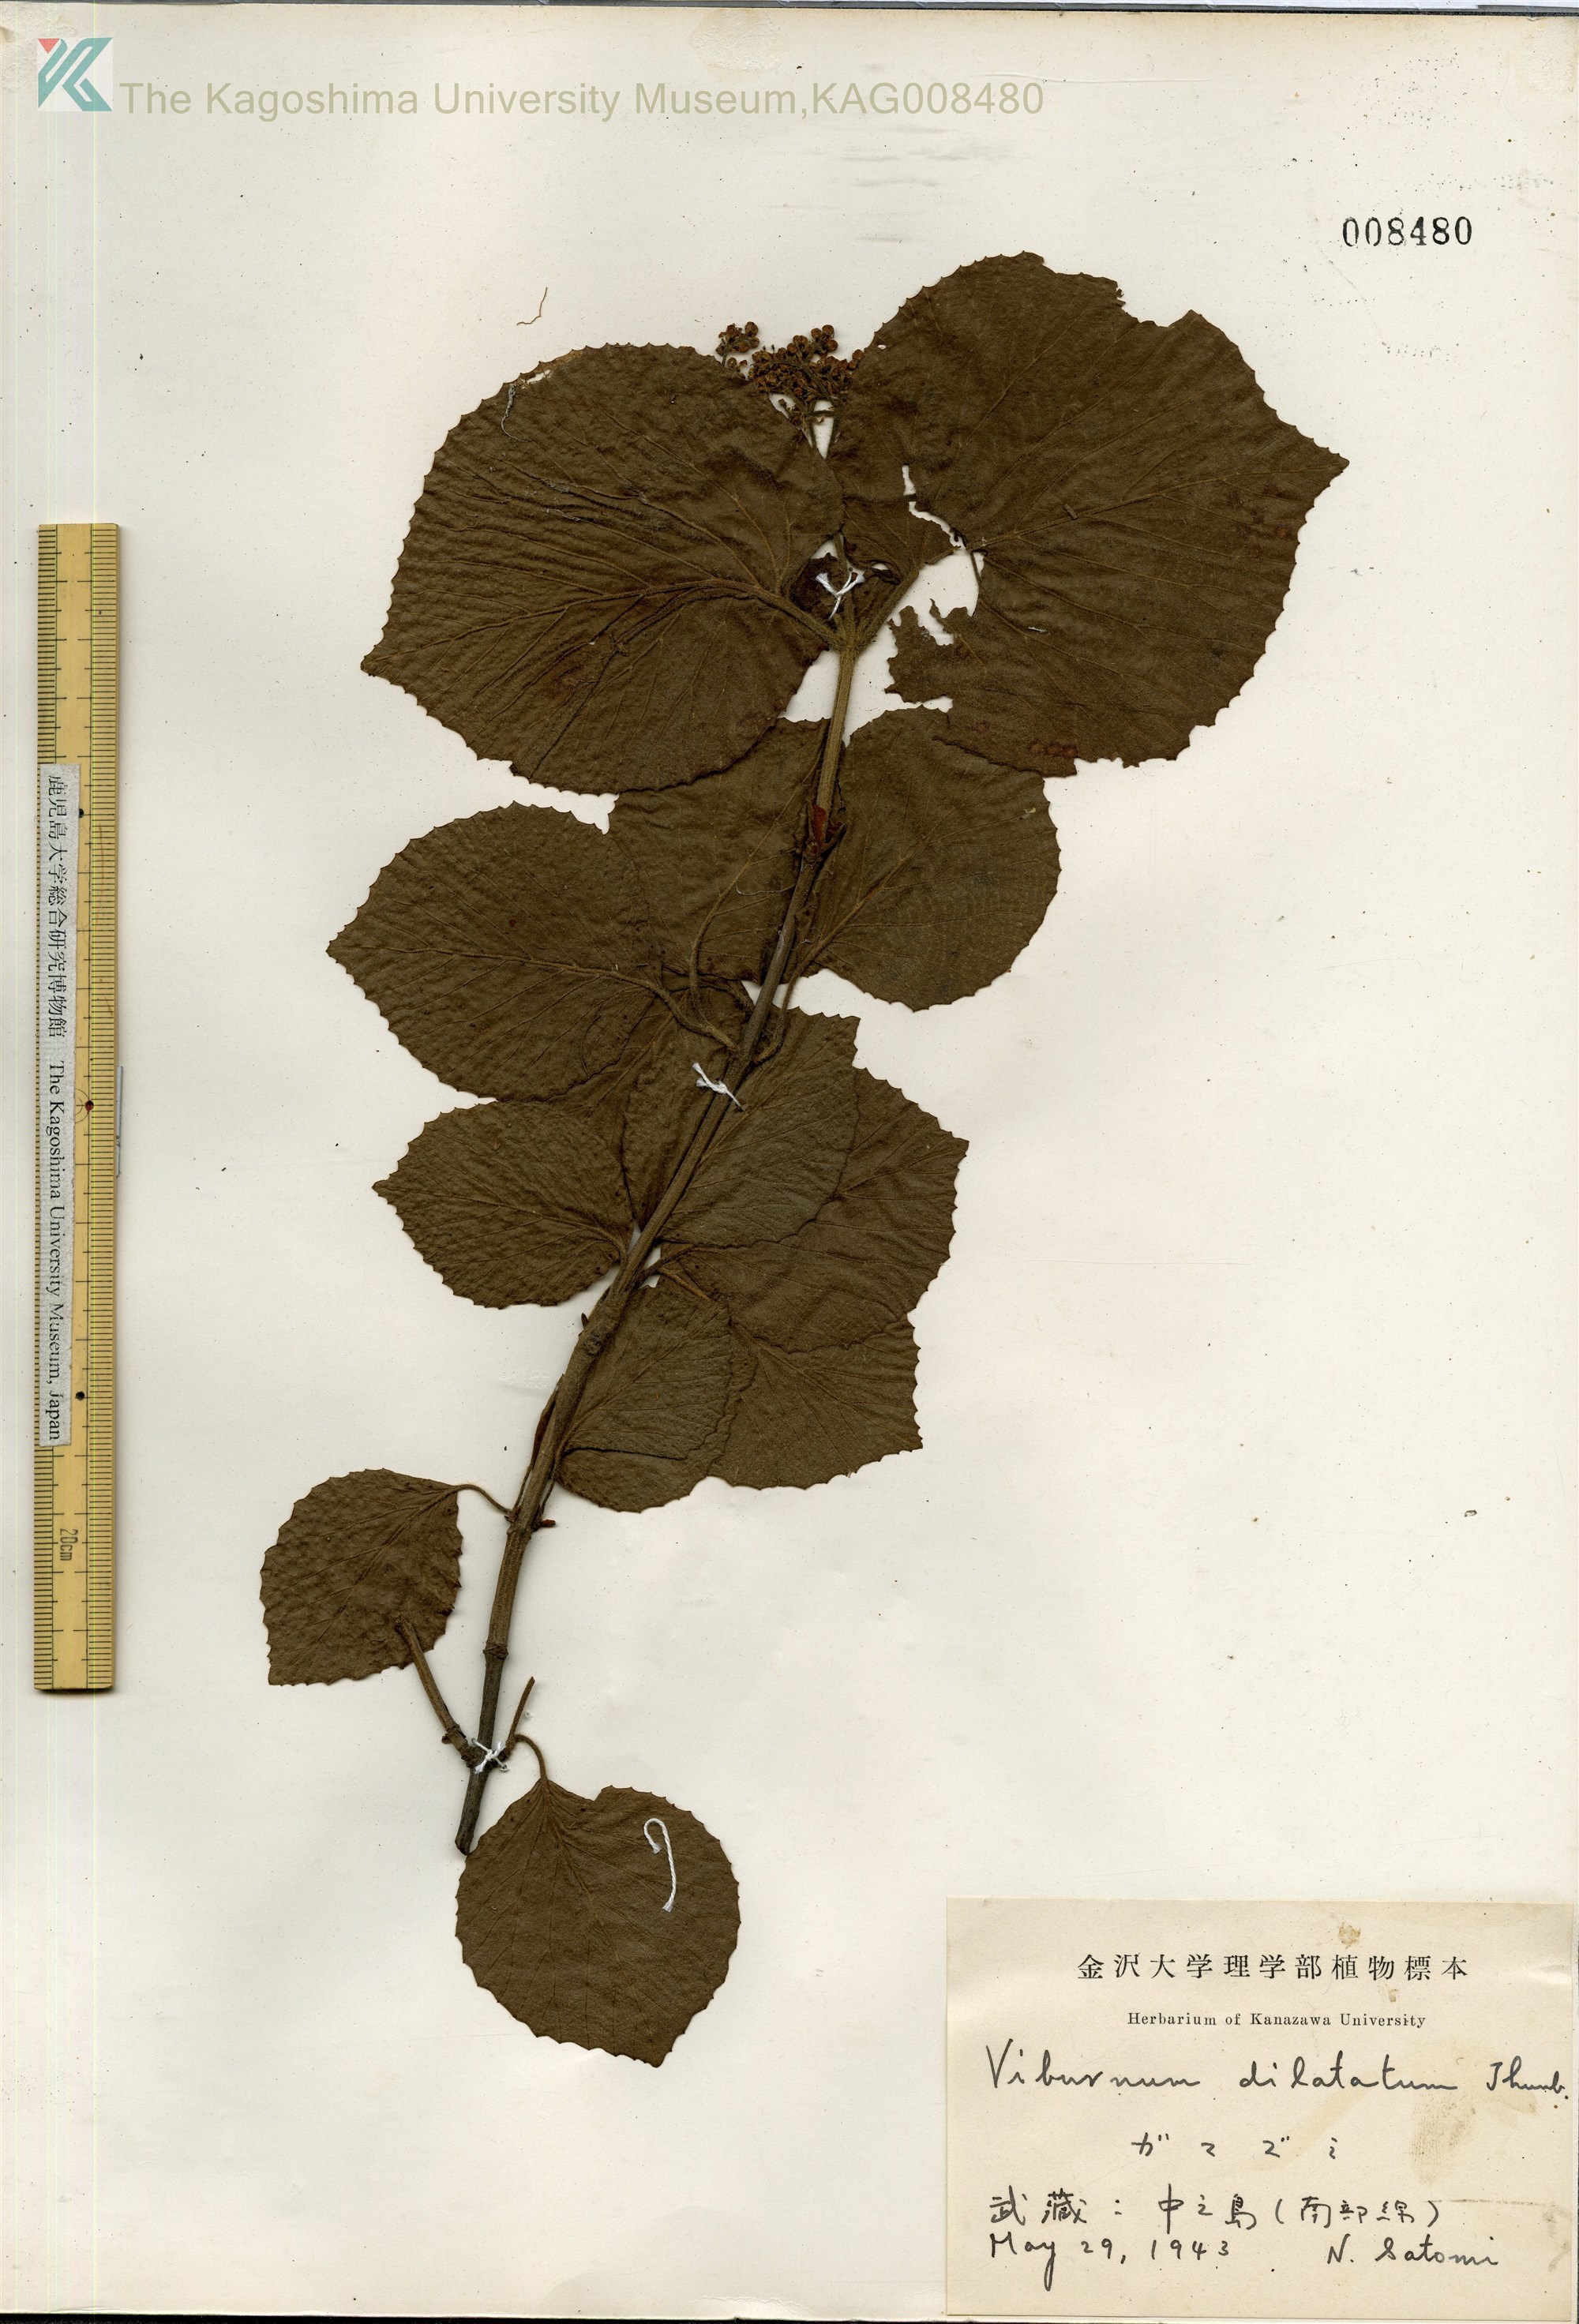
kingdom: Plantae
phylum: Tracheophyta
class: Magnoliopsida
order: Dipsacales
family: Viburnaceae
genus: Viburnum
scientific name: Viburnum dilatatum
